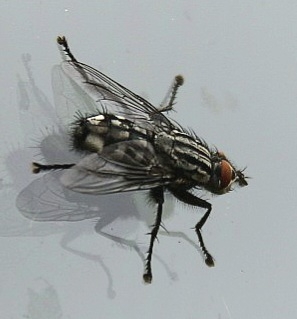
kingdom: Animalia
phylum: Arthropoda
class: Insecta
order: Diptera
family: Sarcophagidae
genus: Sarcophaga
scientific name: Sarcophaga
